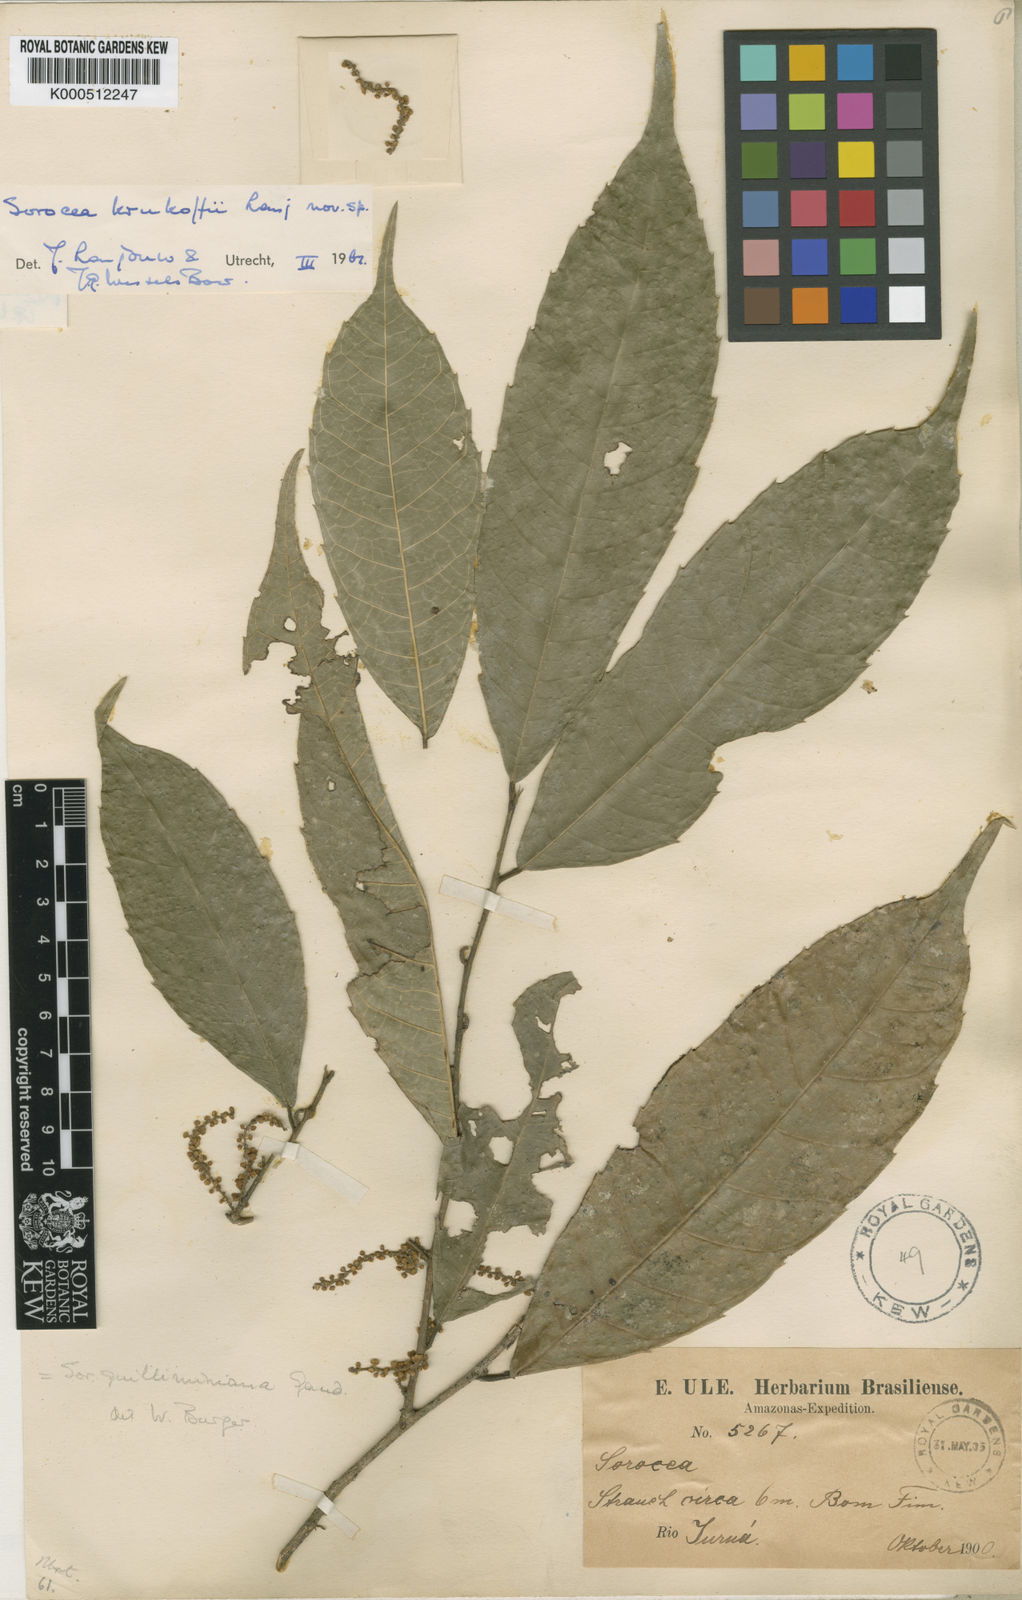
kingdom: Plantae
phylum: Tracheophyta
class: Magnoliopsida
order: Rosales
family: Moraceae
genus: Sorocea
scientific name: Sorocea
